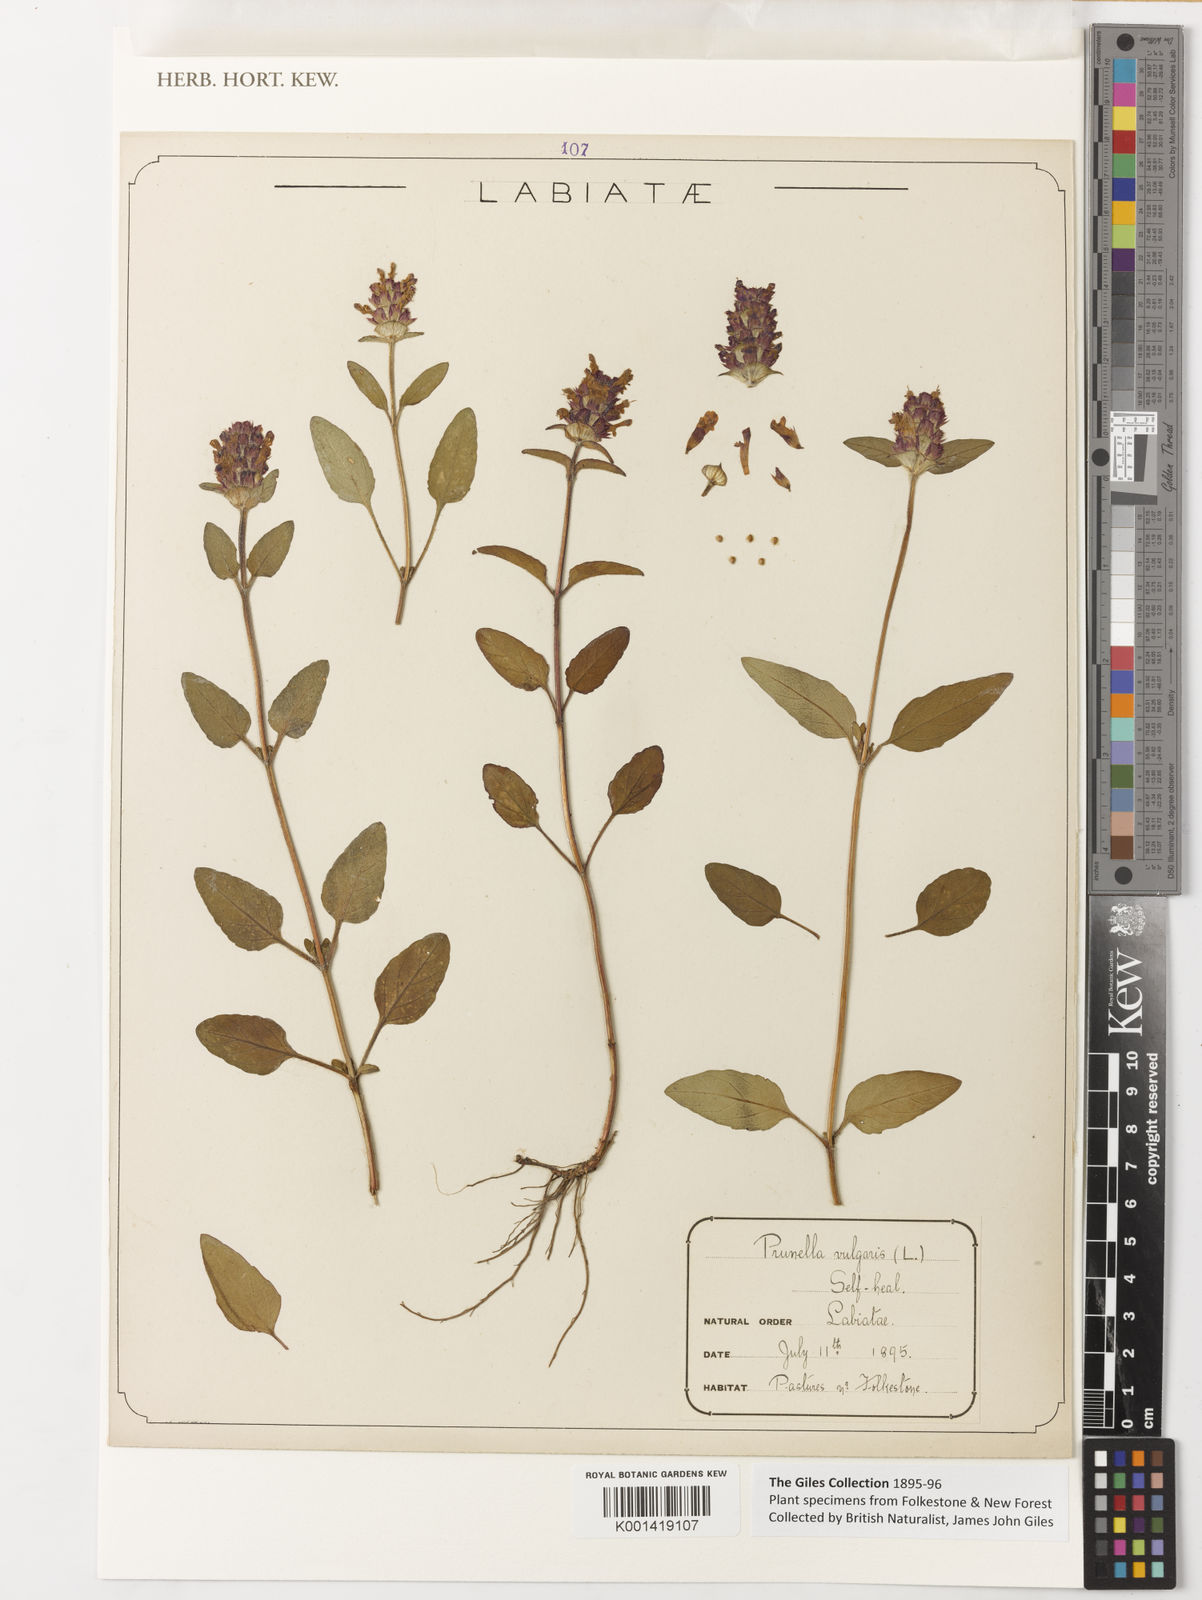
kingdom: Plantae
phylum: Tracheophyta
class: Magnoliopsida
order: Lamiales
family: Lamiaceae
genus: Prunella
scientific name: Prunella vulgaris
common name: Heal-all
